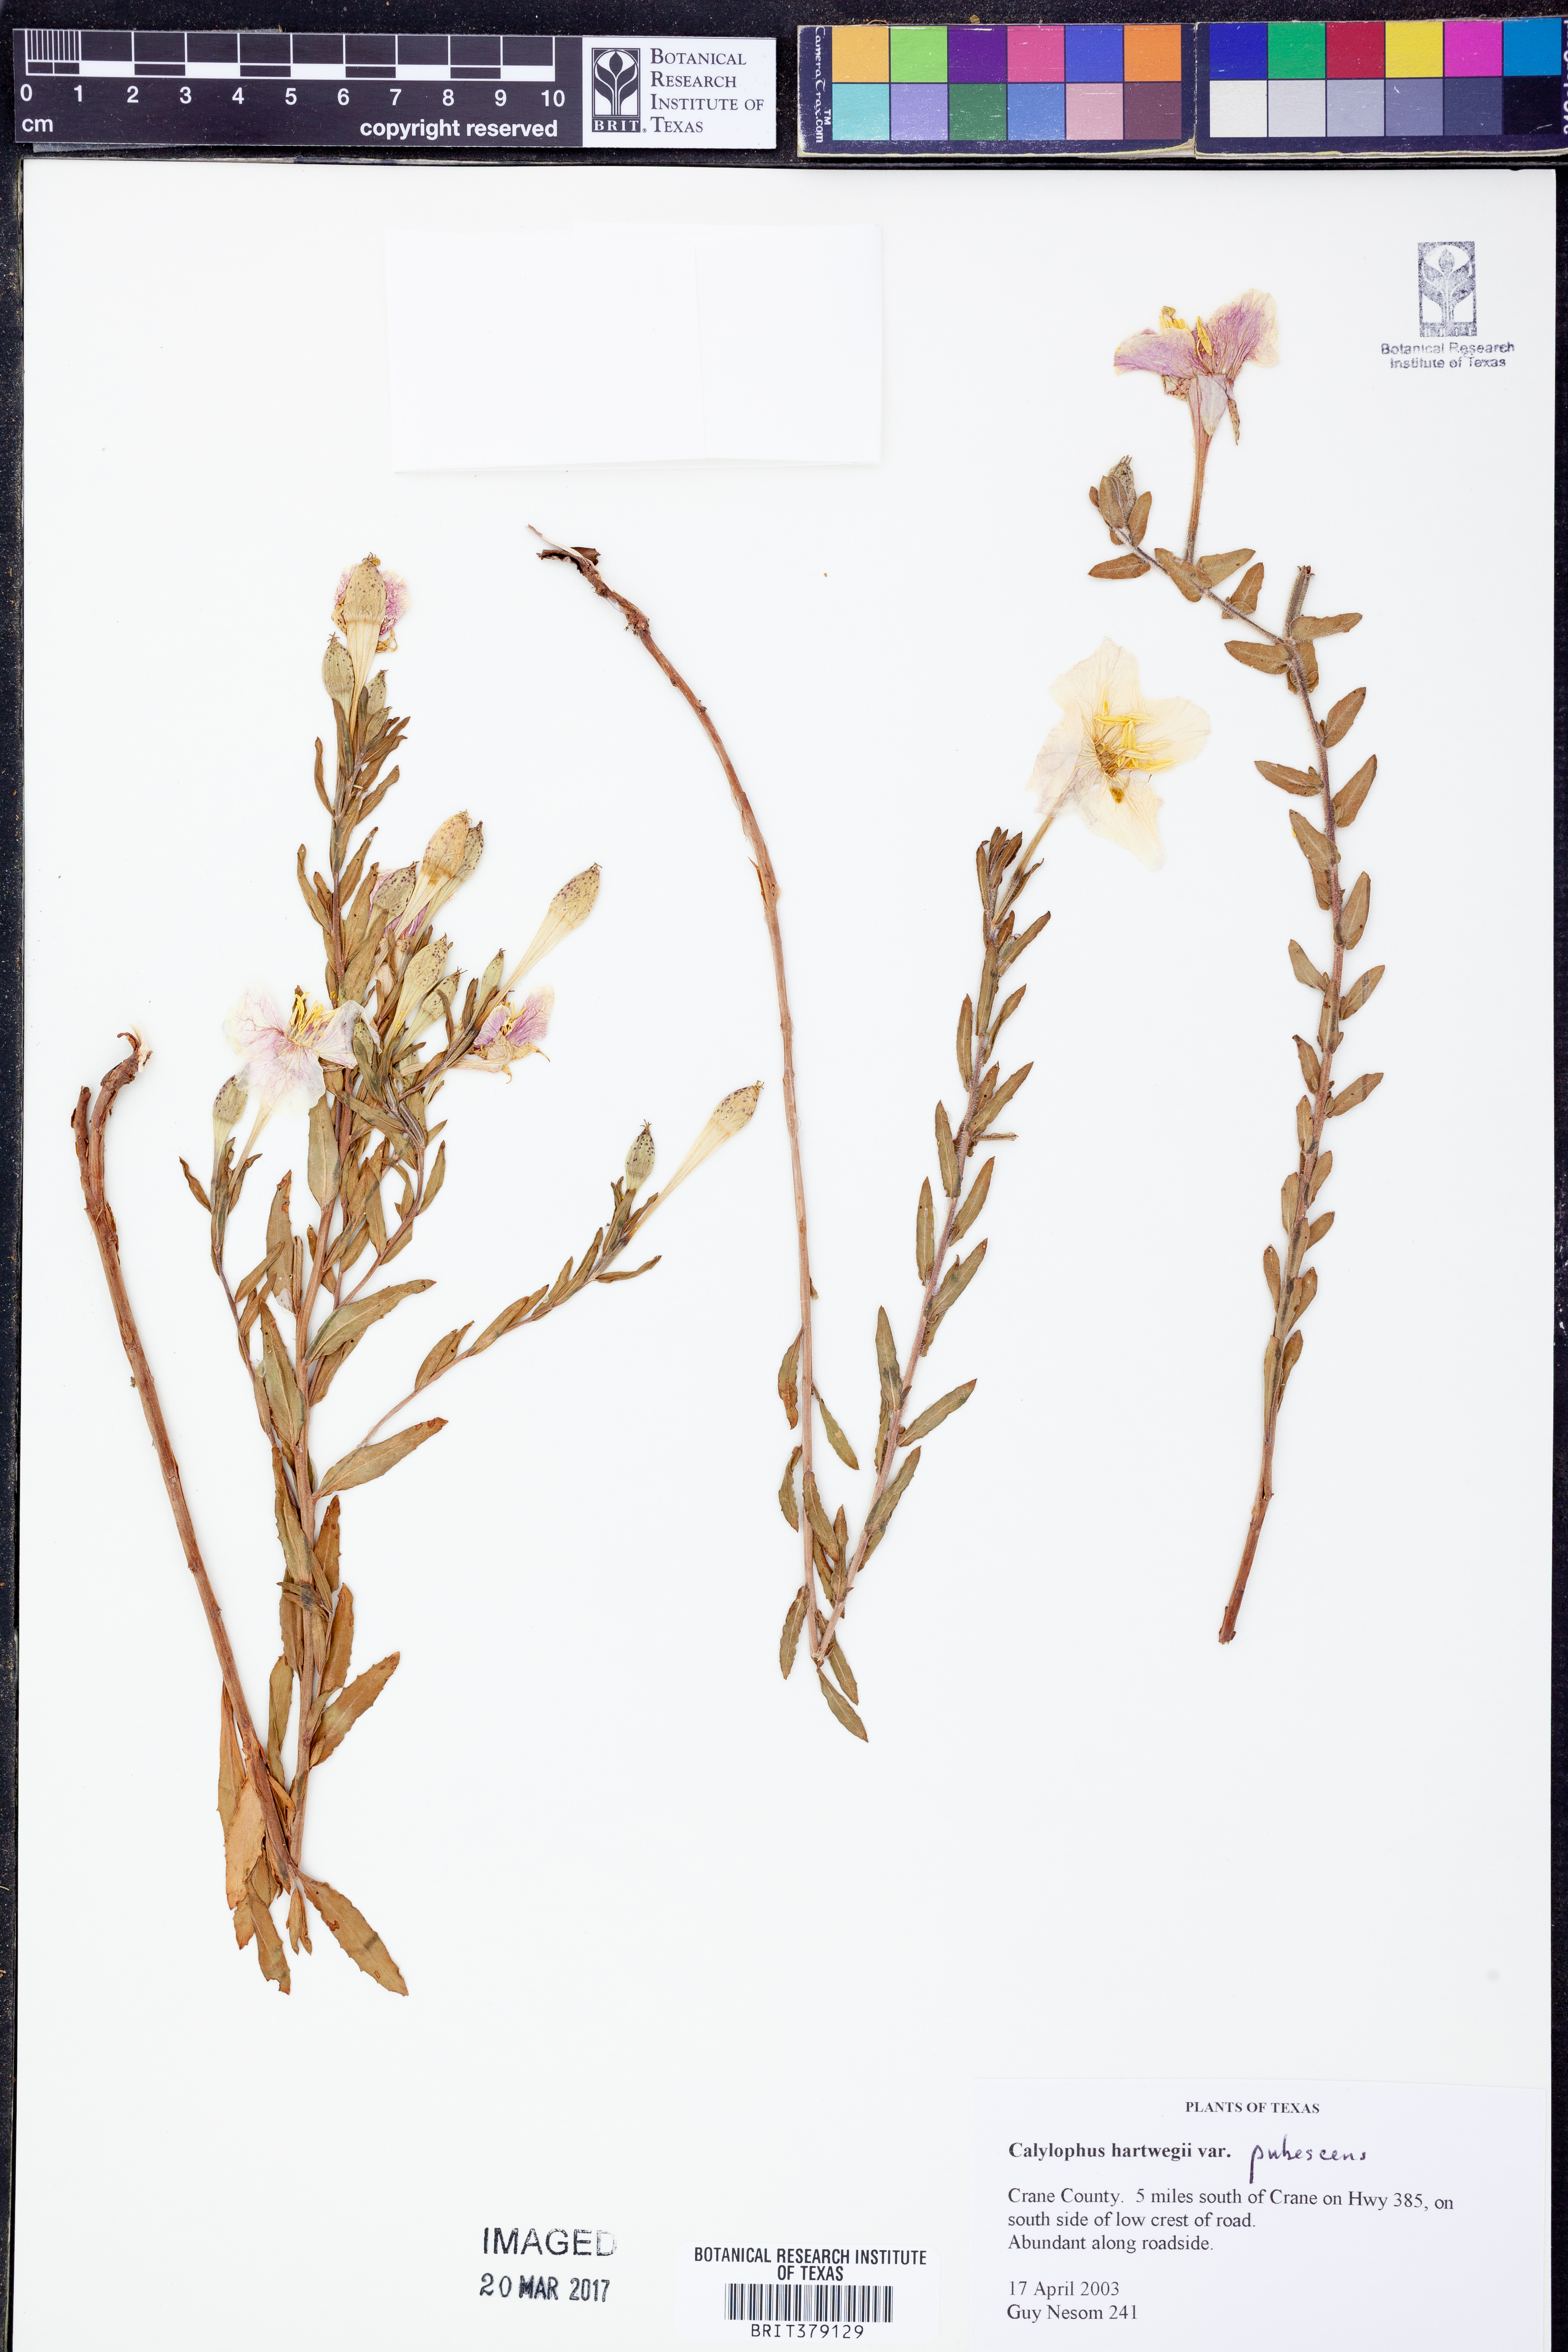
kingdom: Plantae
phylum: Tracheophyta
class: Magnoliopsida
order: Myrtales
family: Onagraceae
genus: Oenothera
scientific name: Oenothera hartwegii
